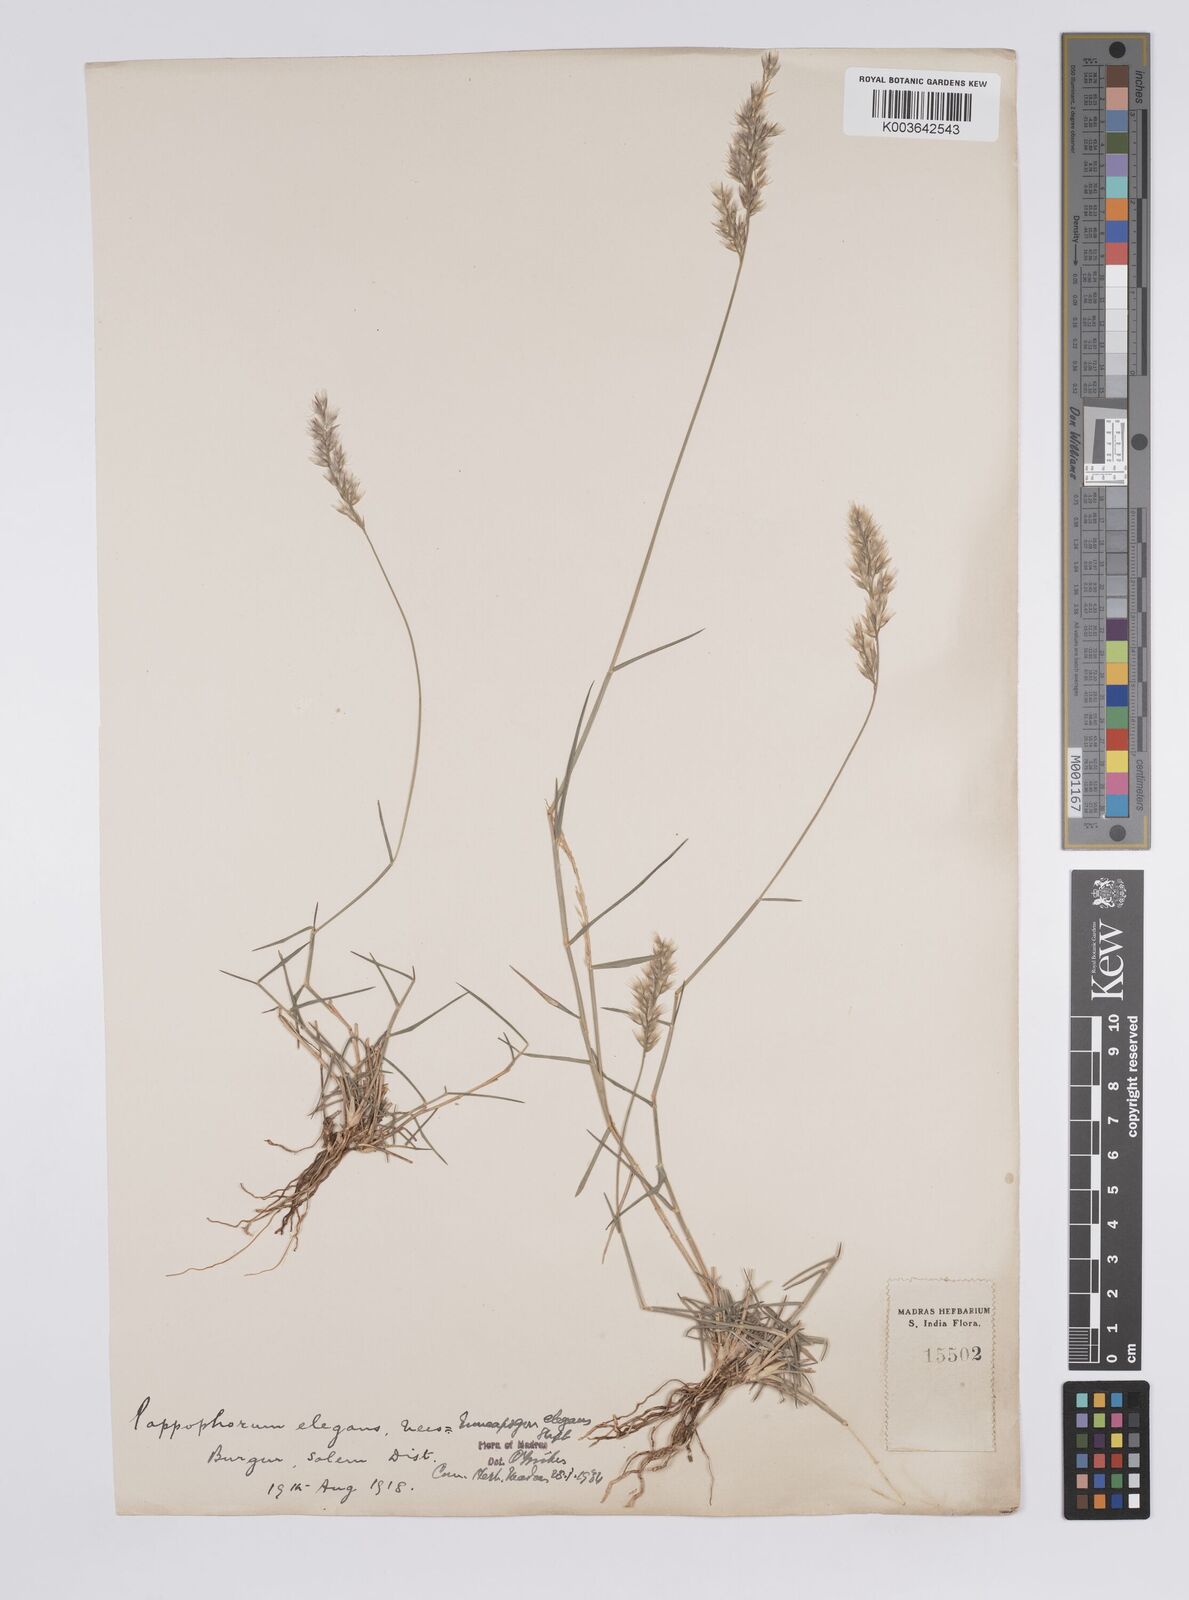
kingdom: Plantae
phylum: Tracheophyta
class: Liliopsida
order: Poales
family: Poaceae
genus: Enneapogon
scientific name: Enneapogon persicus
